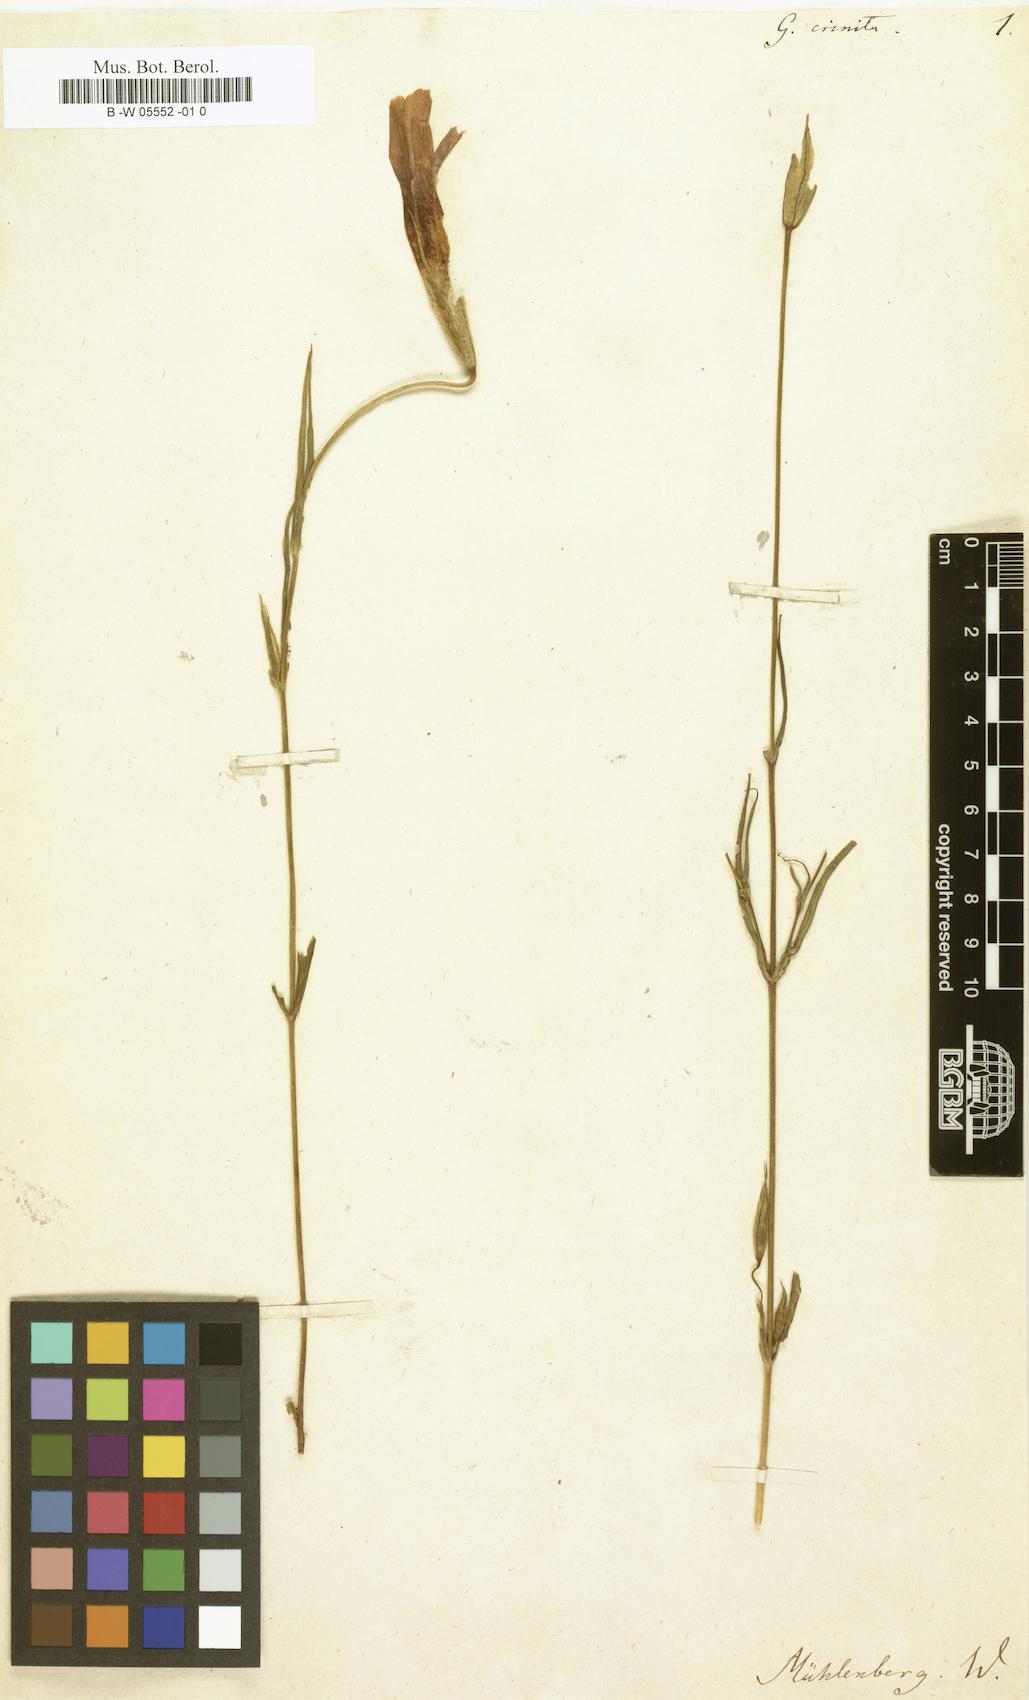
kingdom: Plantae
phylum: Tracheophyta
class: Magnoliopsida
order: Gentianales
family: Gentianaceae
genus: Gentianopsis
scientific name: Gentianopsis crinita
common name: Fringed-gentian
